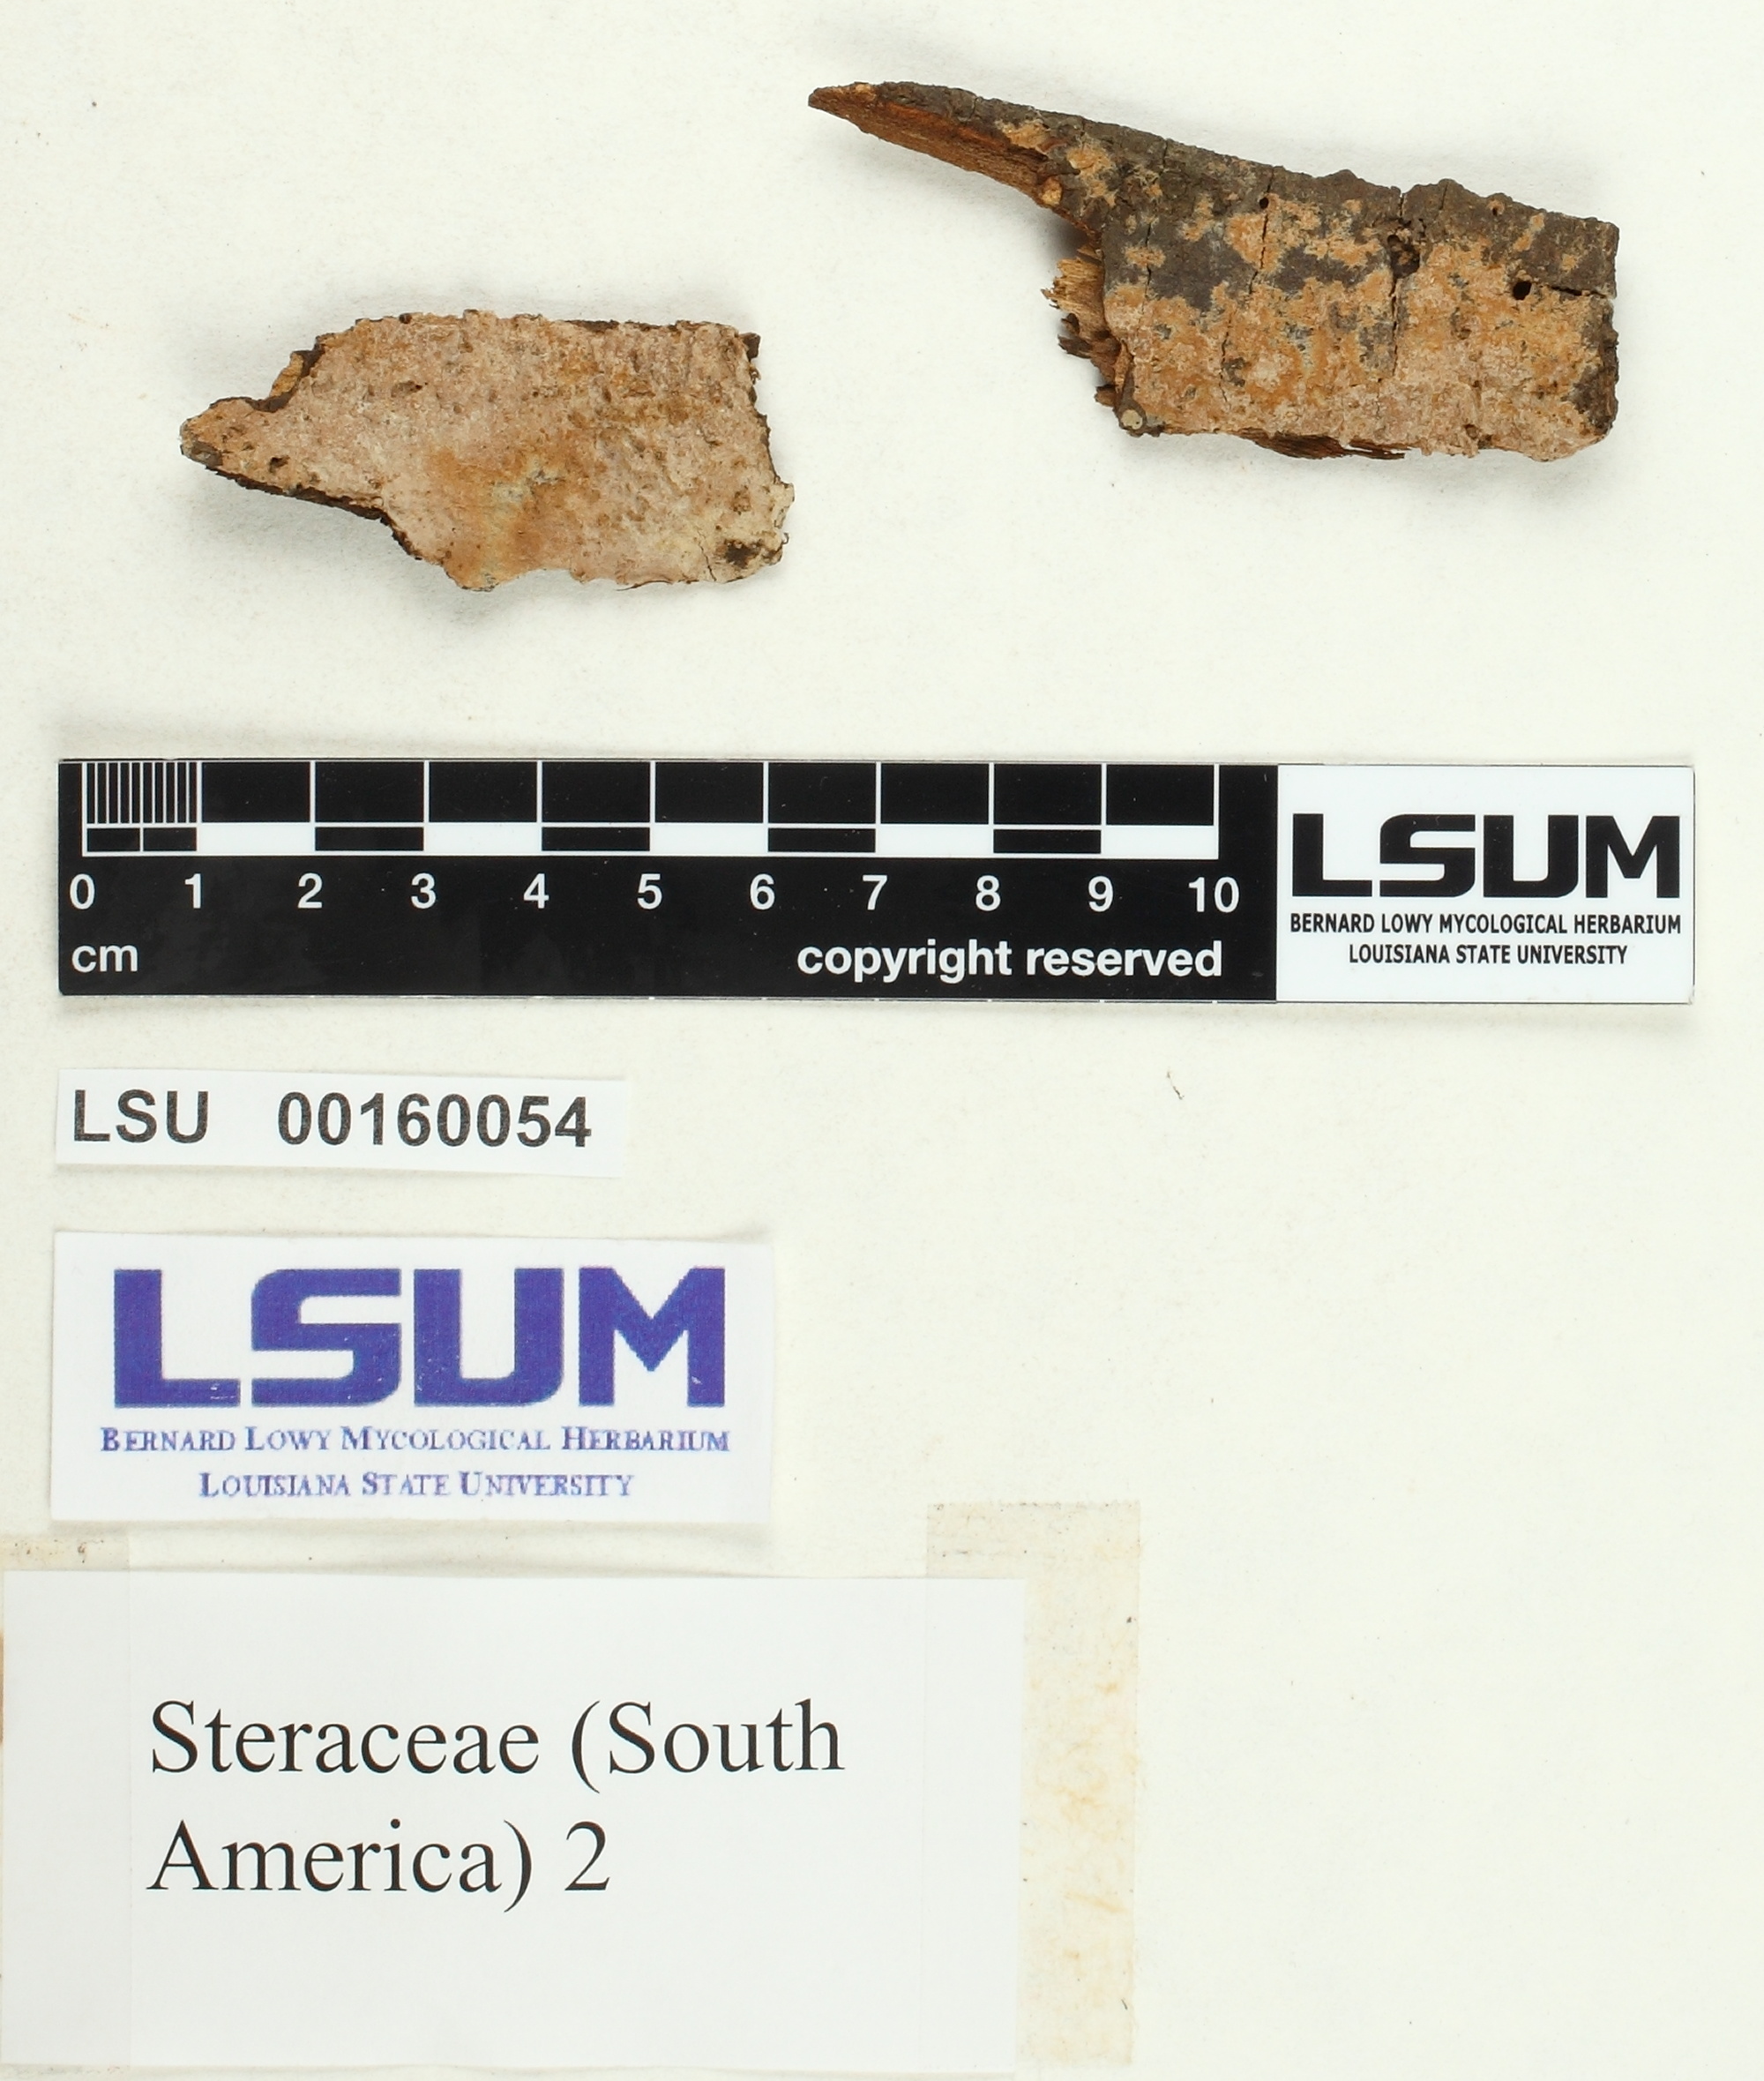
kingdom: Fungi
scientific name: Fungi
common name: Fungi
